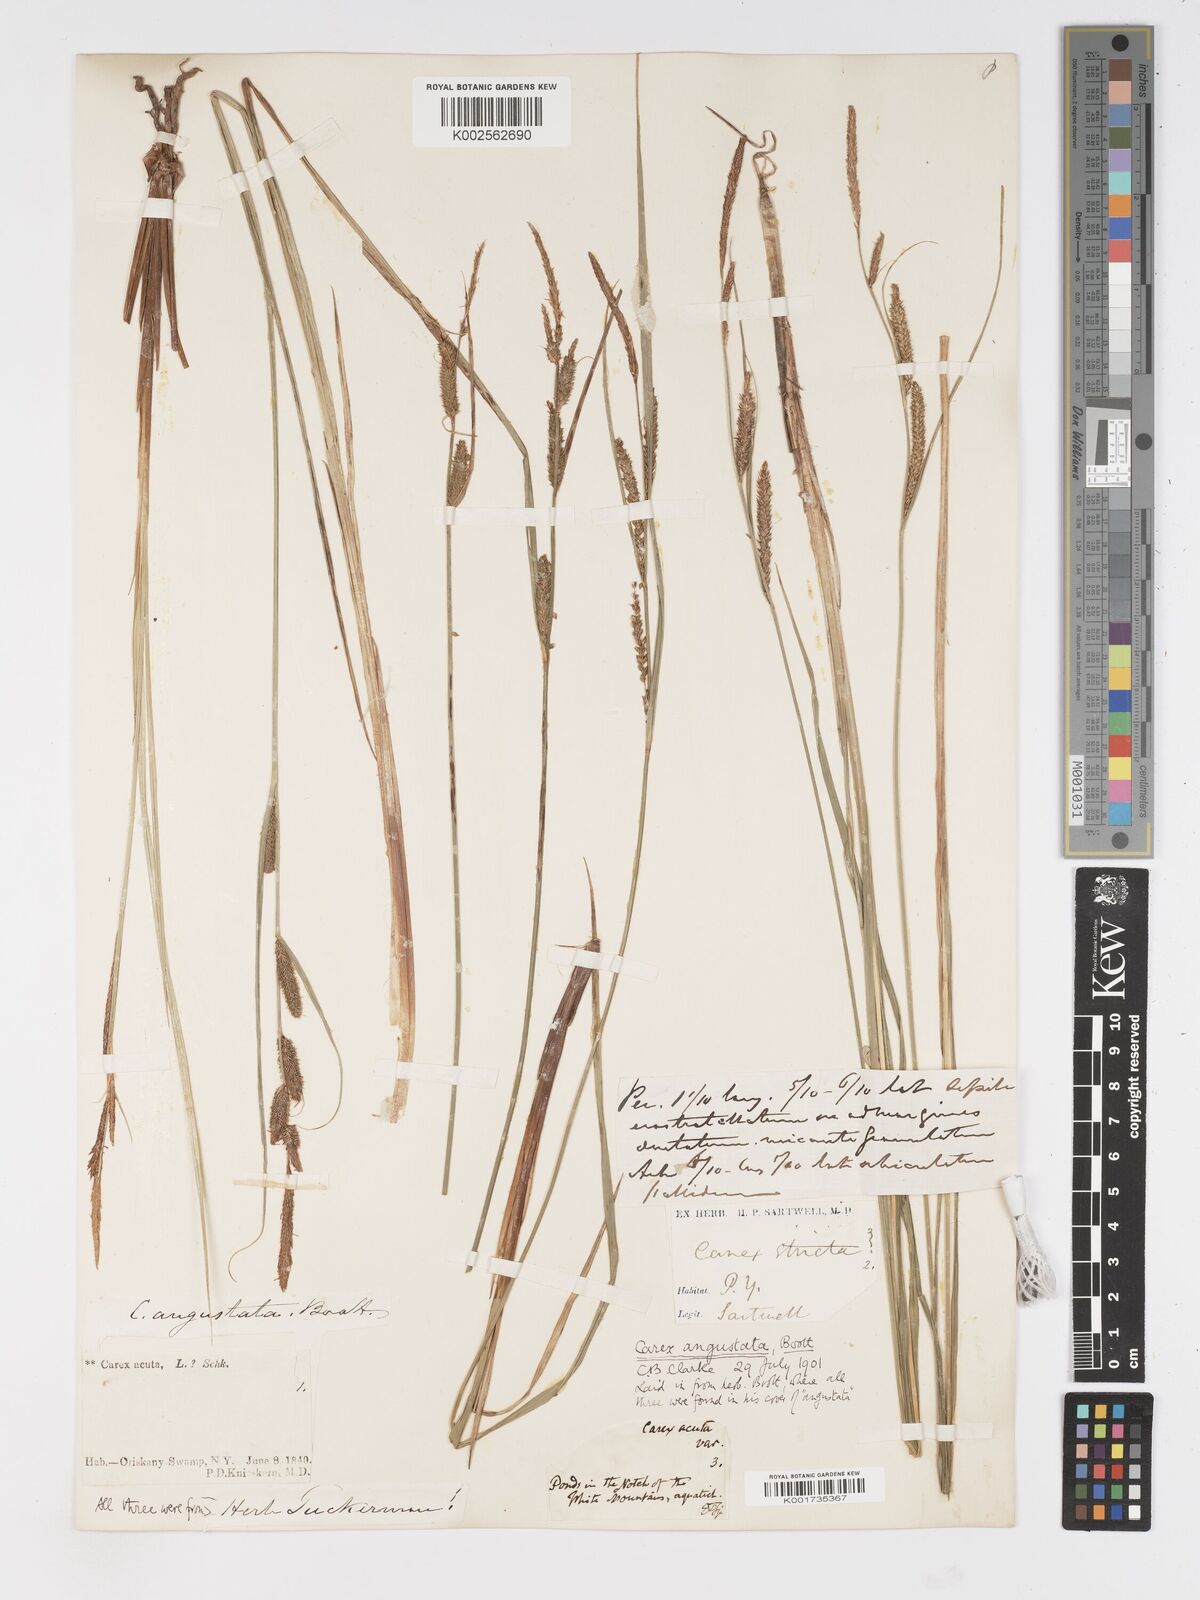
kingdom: Plantae
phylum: Tracheophyta
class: Liliopsida
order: Poales
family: Cyperaceae
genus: Carex
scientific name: Carex stricta
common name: Hummock sedge
